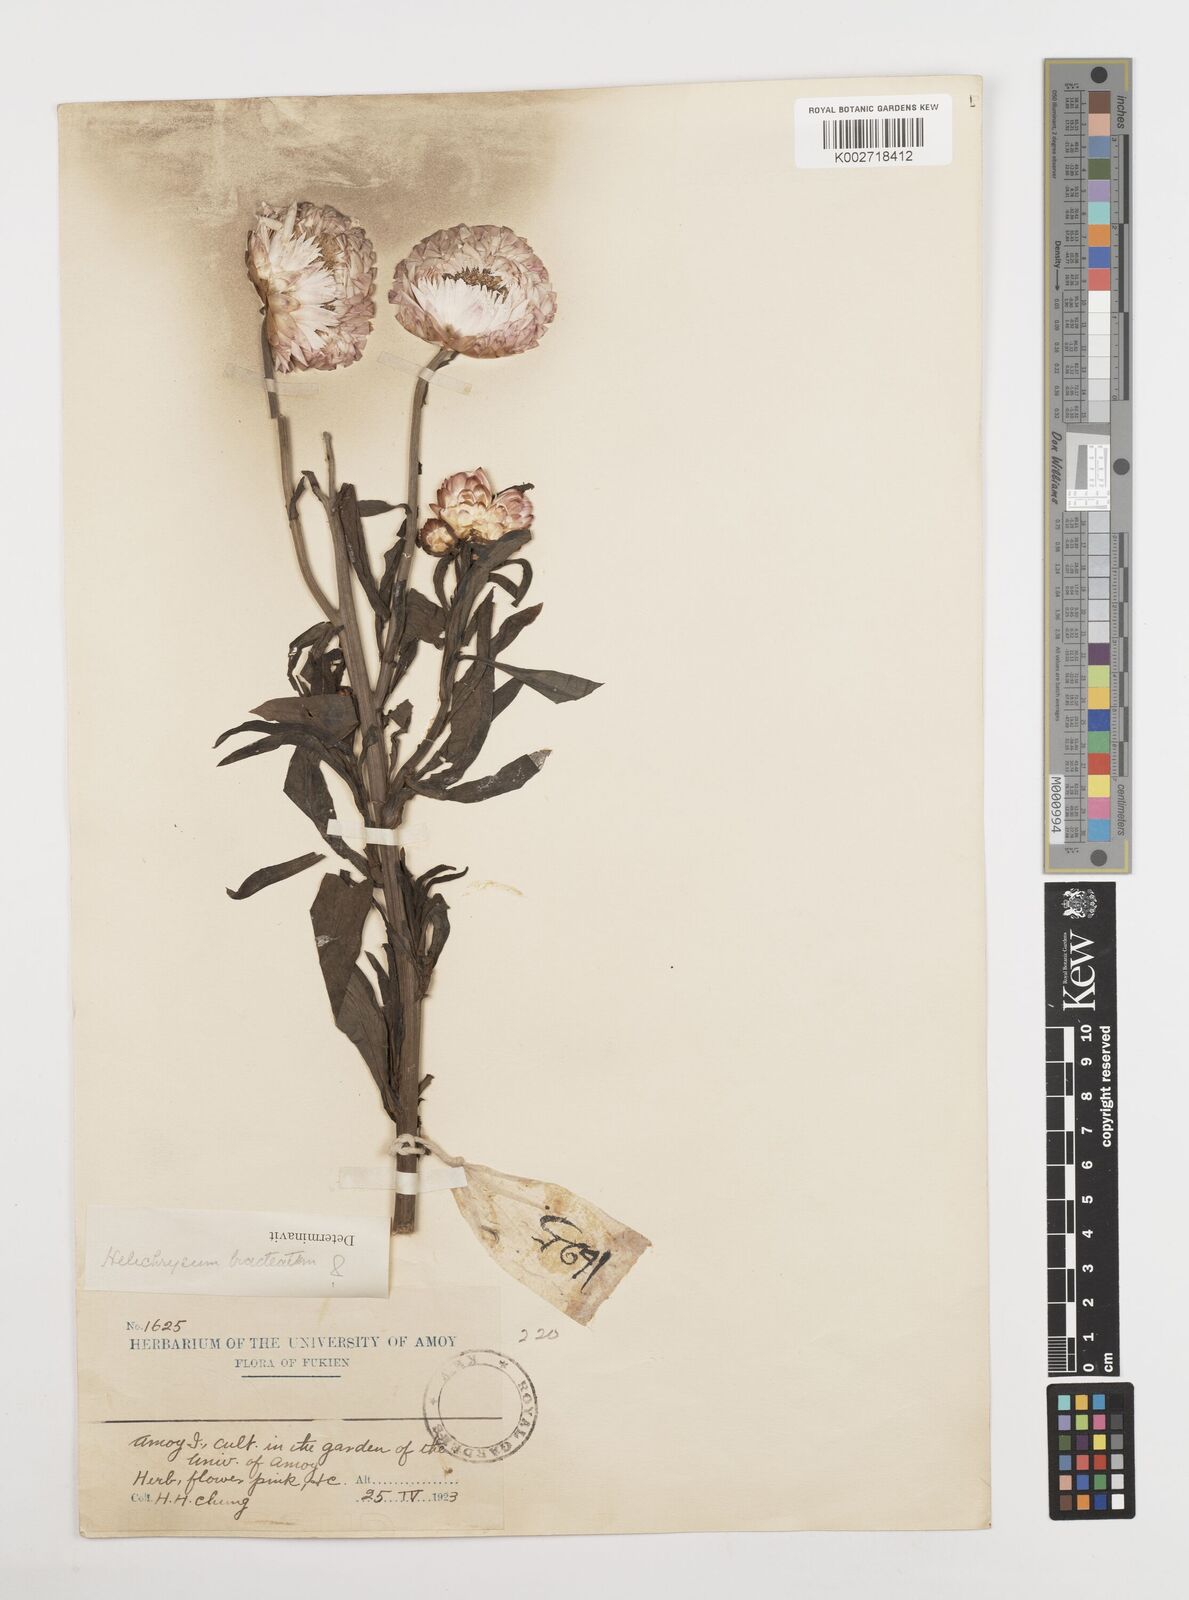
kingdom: Plantae
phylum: Tracheophyta
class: Magnoliopsida
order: Asterales
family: Asteraceae
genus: Xerochrysum
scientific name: Xerochrysum bracteatum
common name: Bracted strawflower
